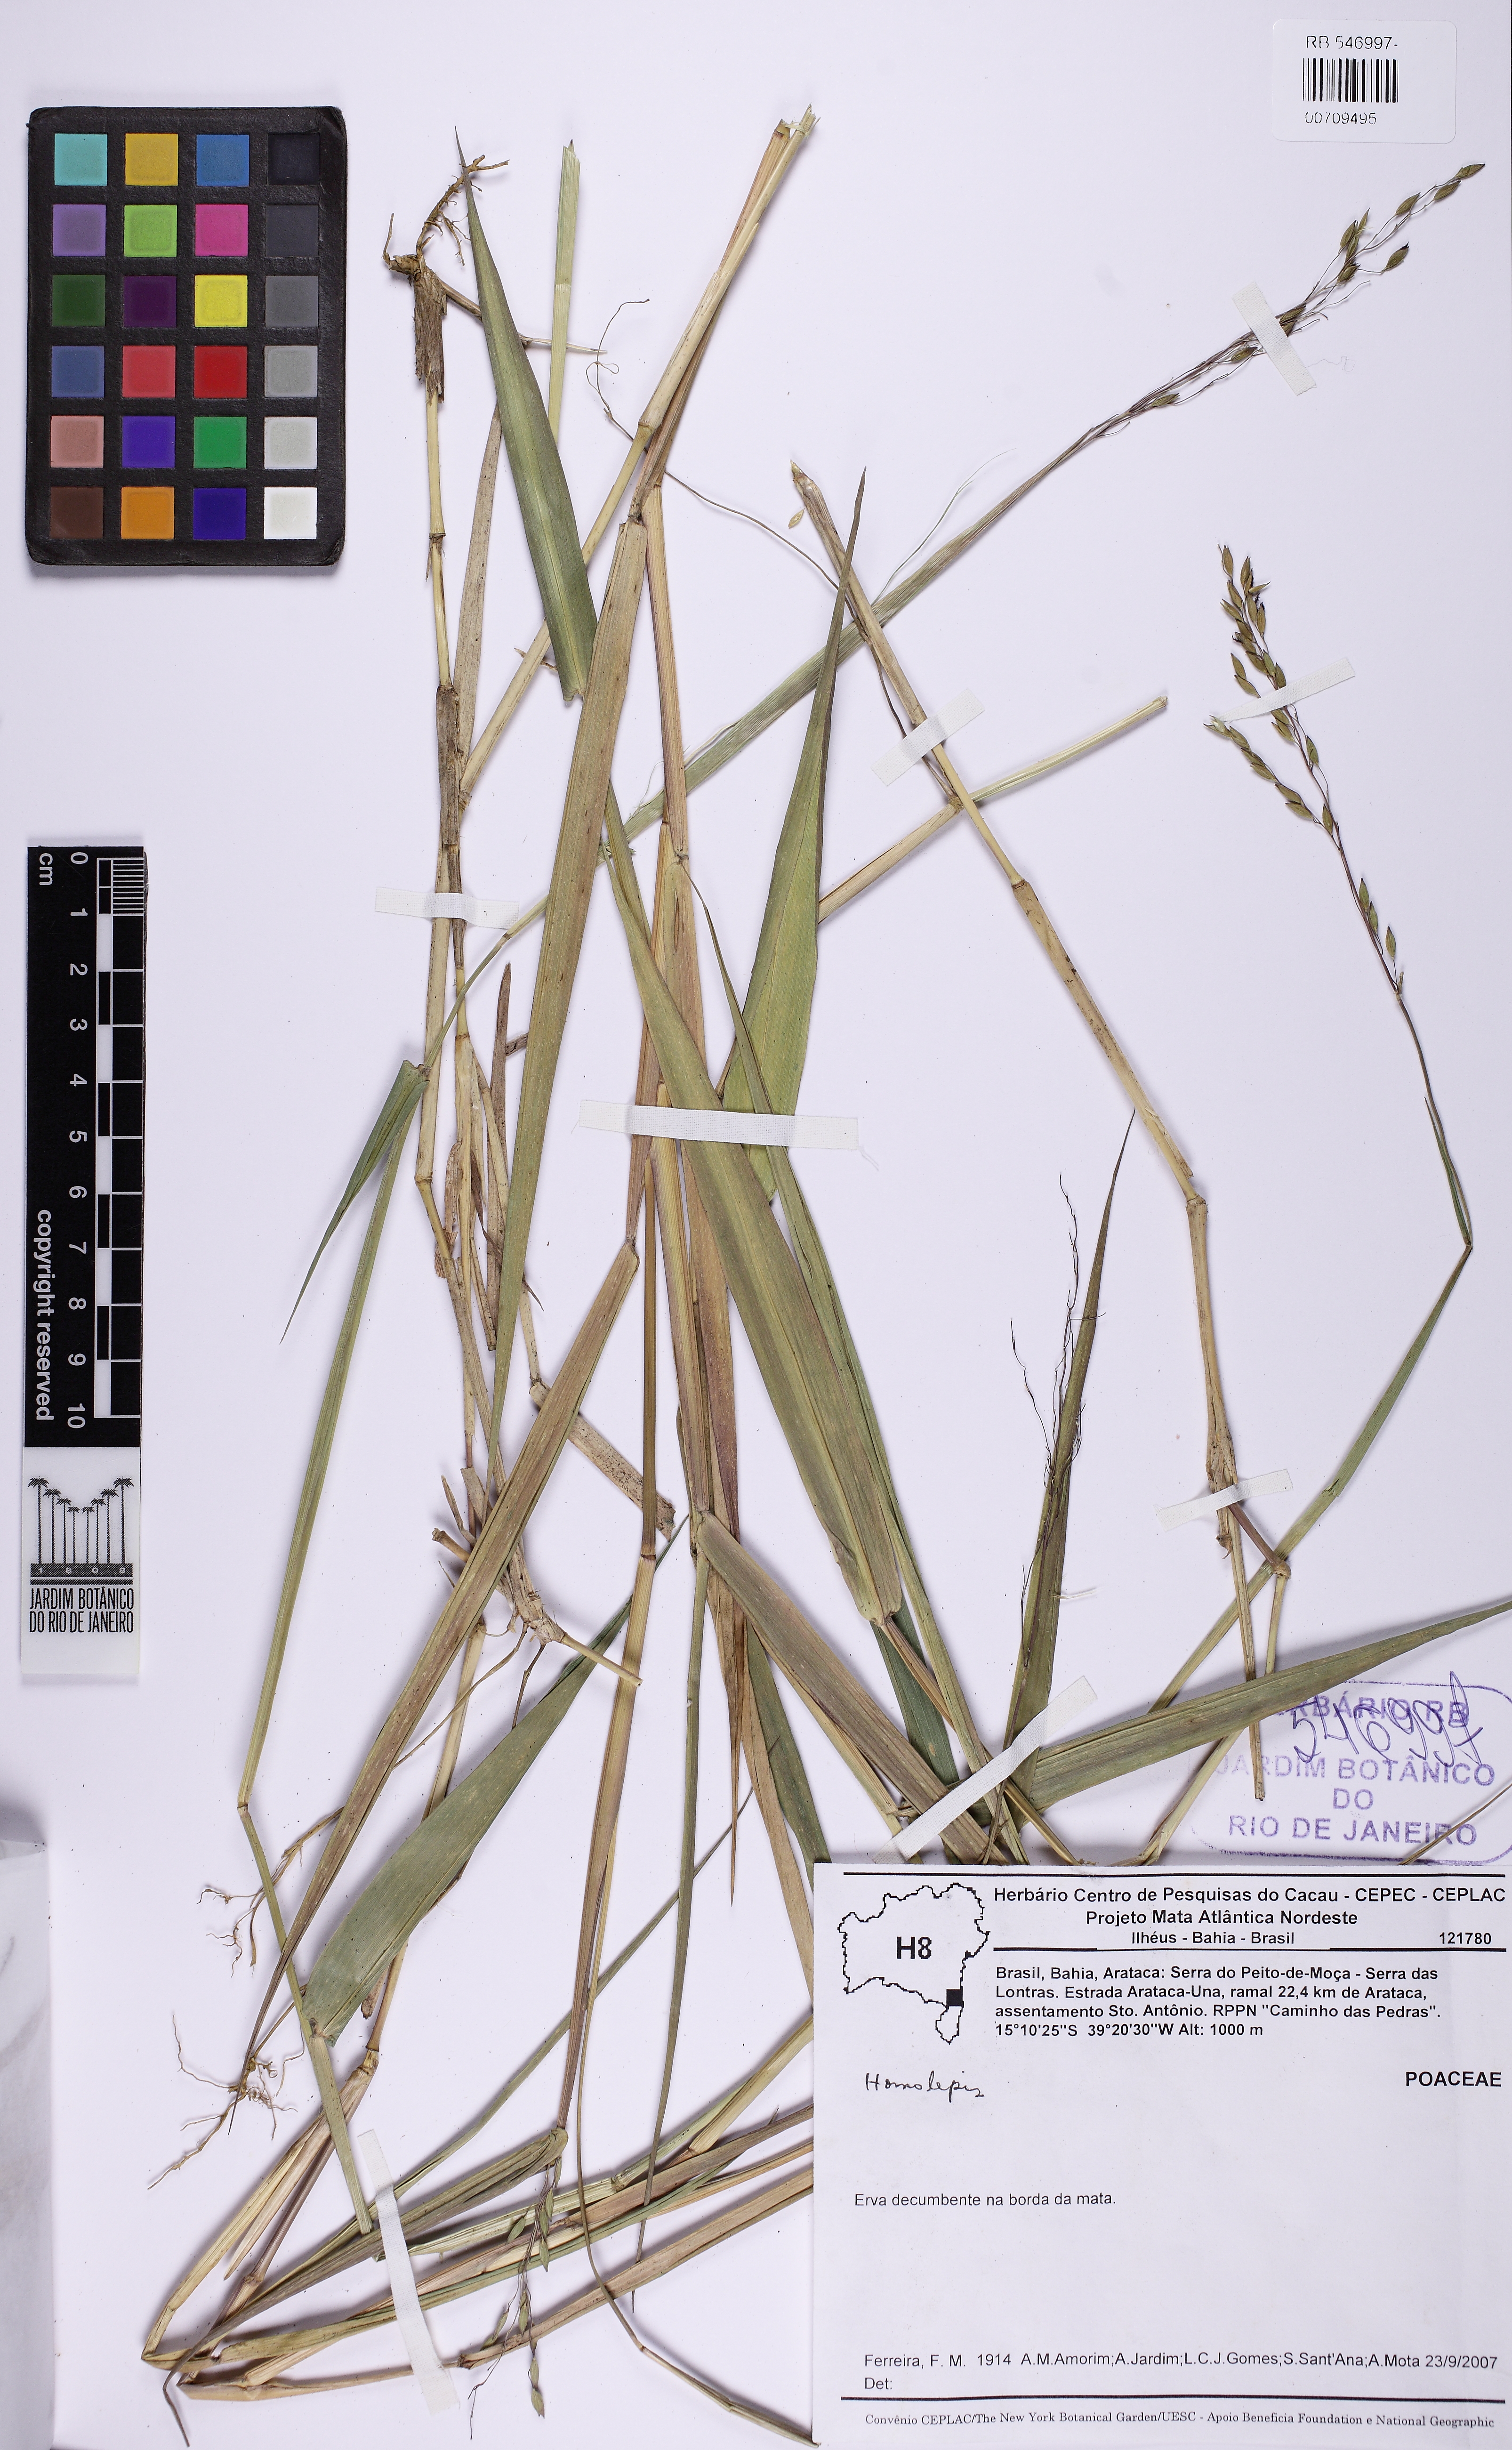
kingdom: Plantae
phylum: Tracheophyta
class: Liliopsida
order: Poales
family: Poaceae
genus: Homolepis
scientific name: Homolepis
